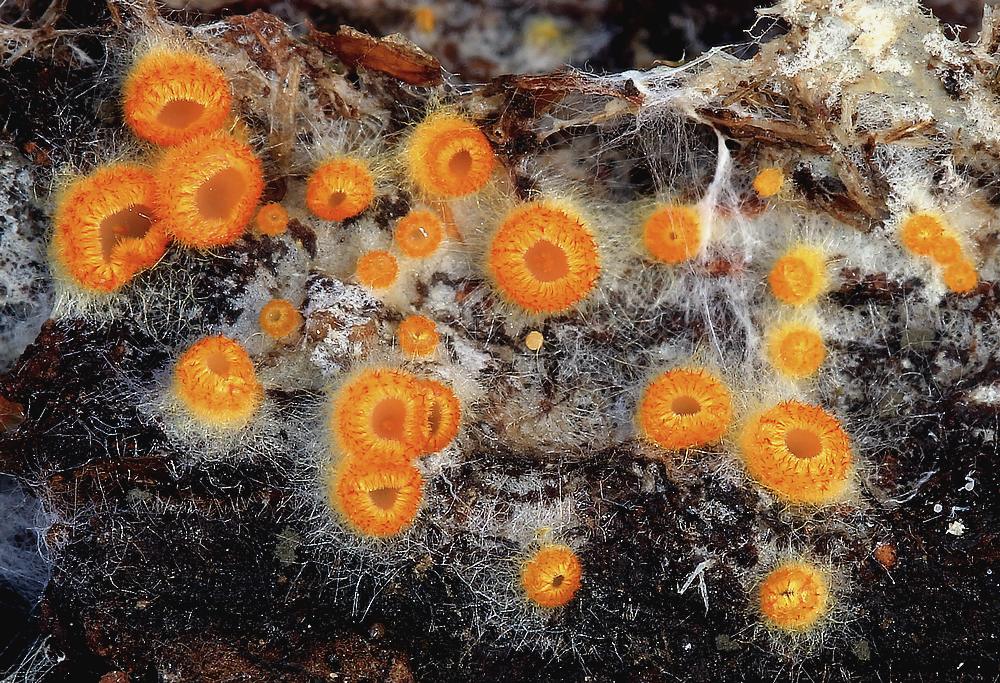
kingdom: Fungi
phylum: Ascomycota
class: Leotiomycetes
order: Helotiales
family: Arachnopezizaceae
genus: Arachnopeziza
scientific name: Arachnopeziza aurelia
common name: flamme-spindskive
